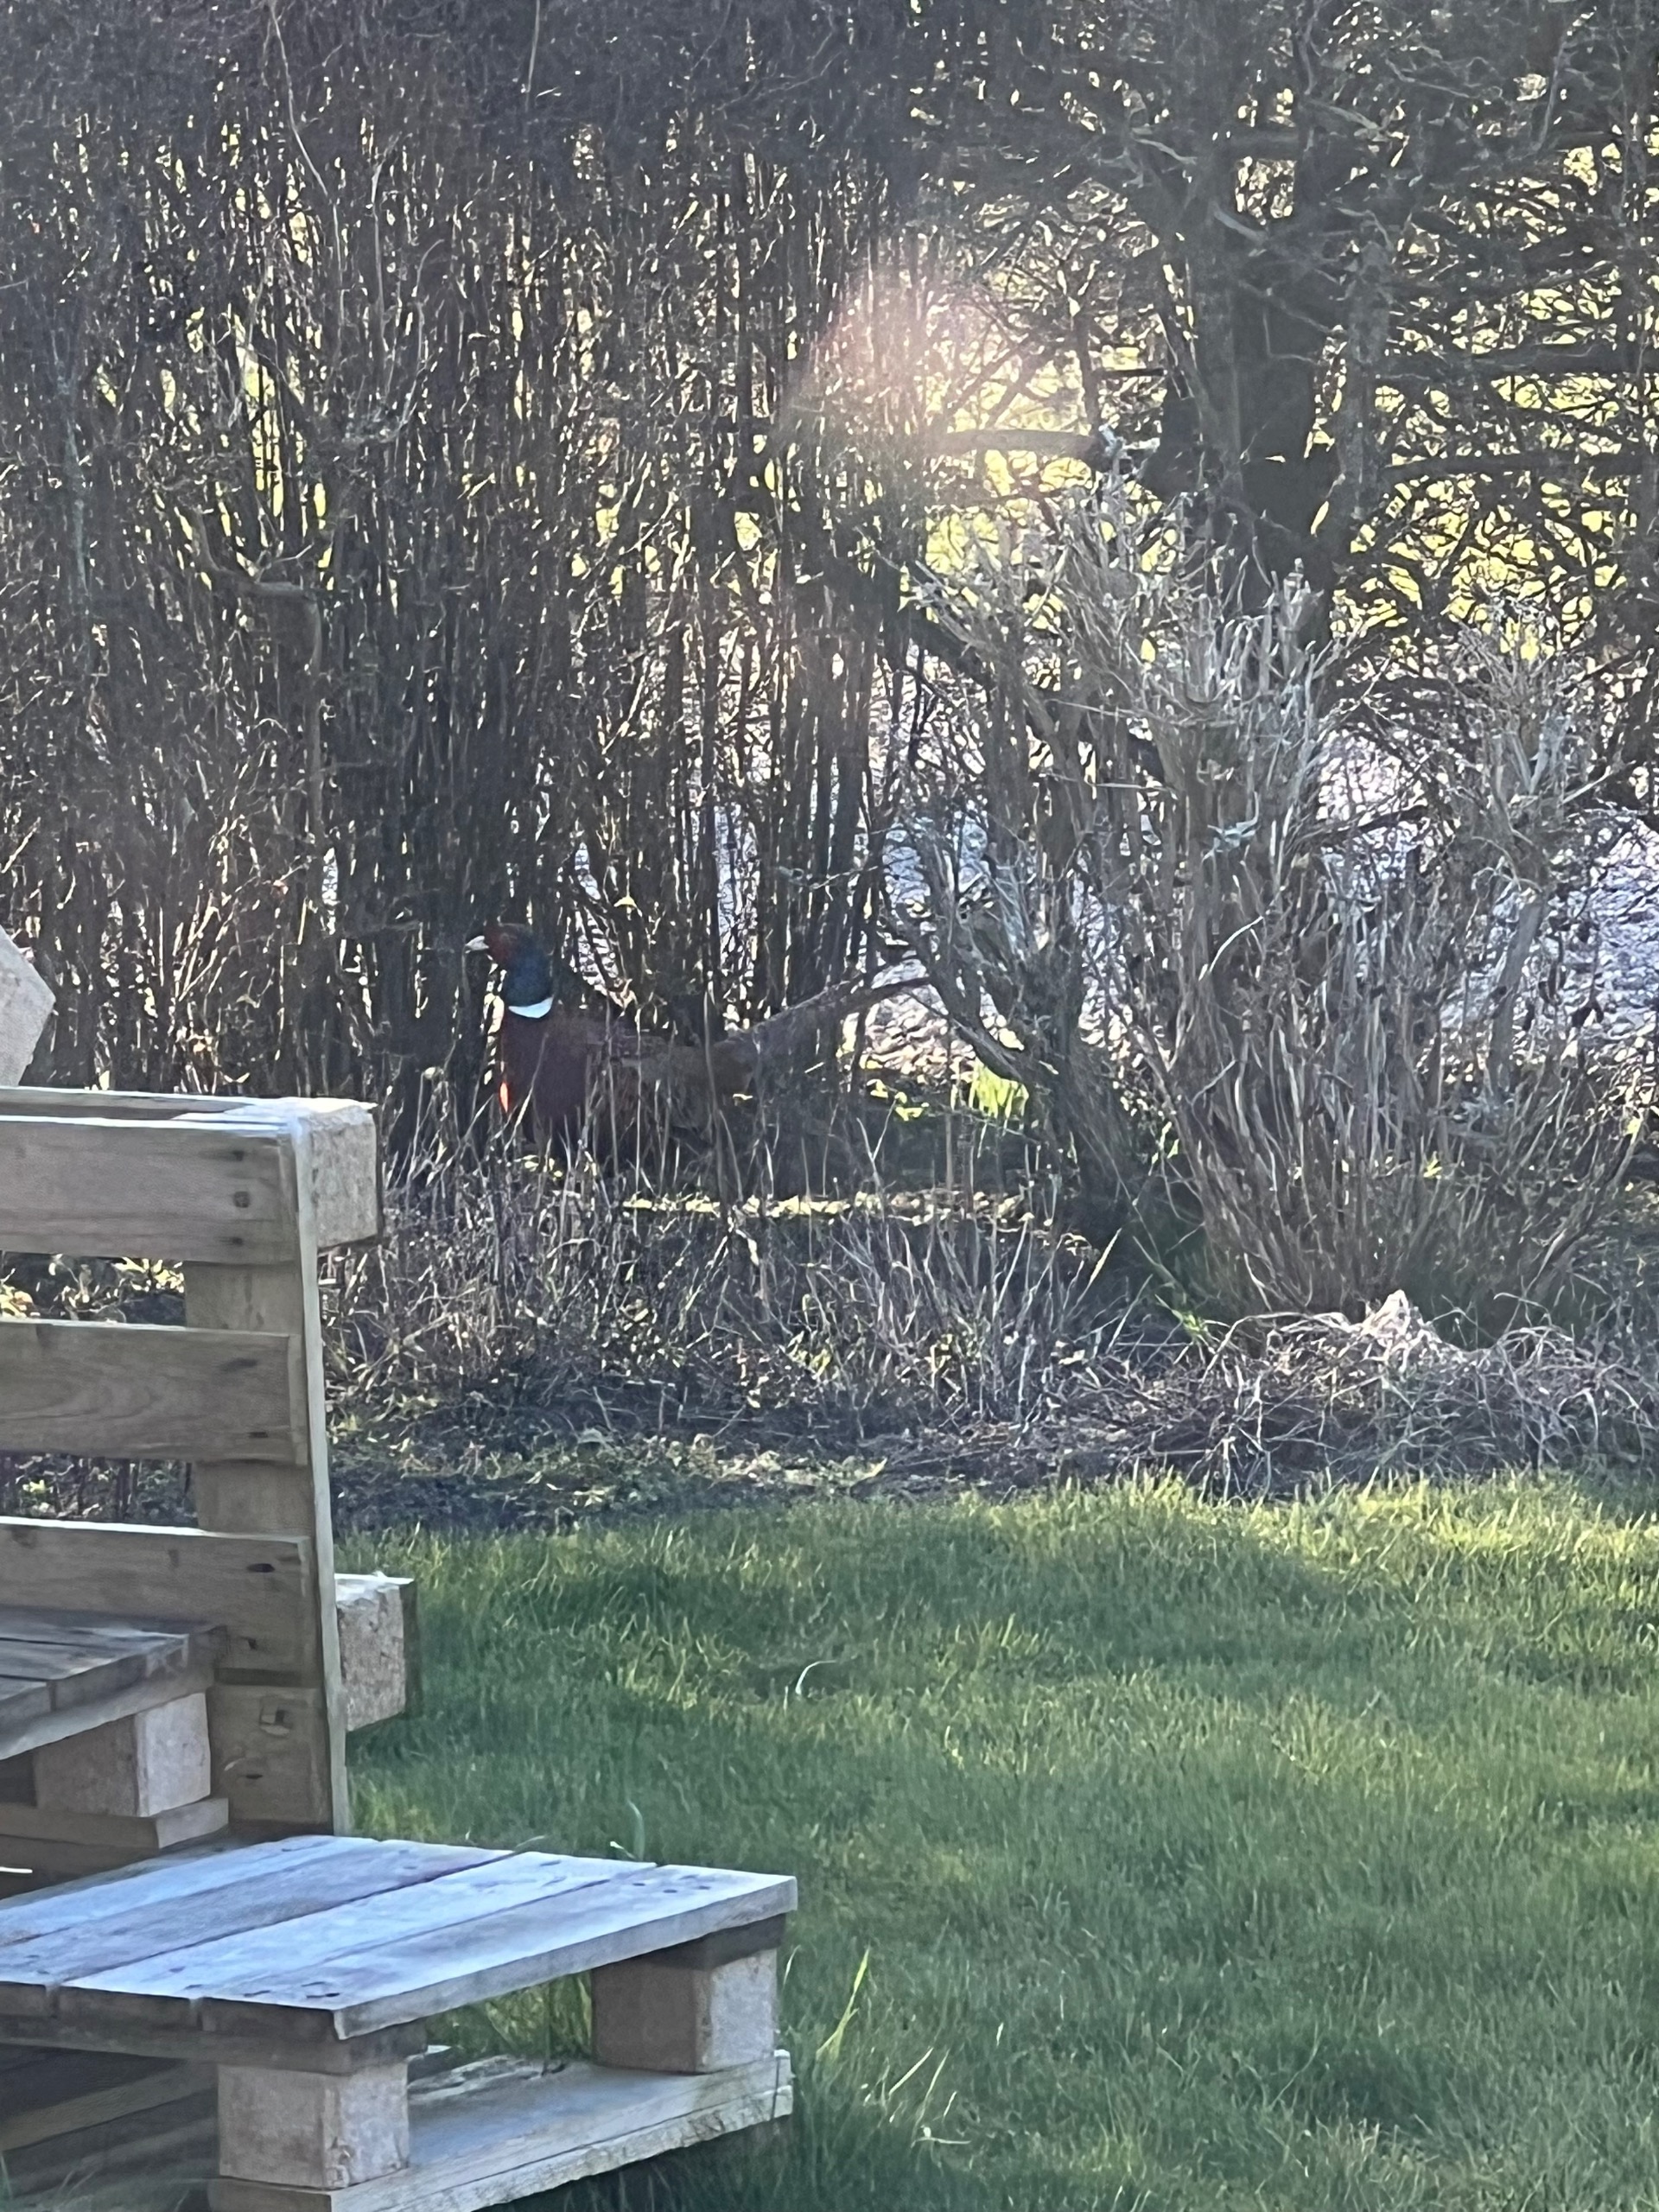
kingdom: Animalia
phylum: Chordata
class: Aves
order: Galliformes
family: Phasianidae
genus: Phasianus
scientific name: Phasianus colchicus
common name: Fasan
